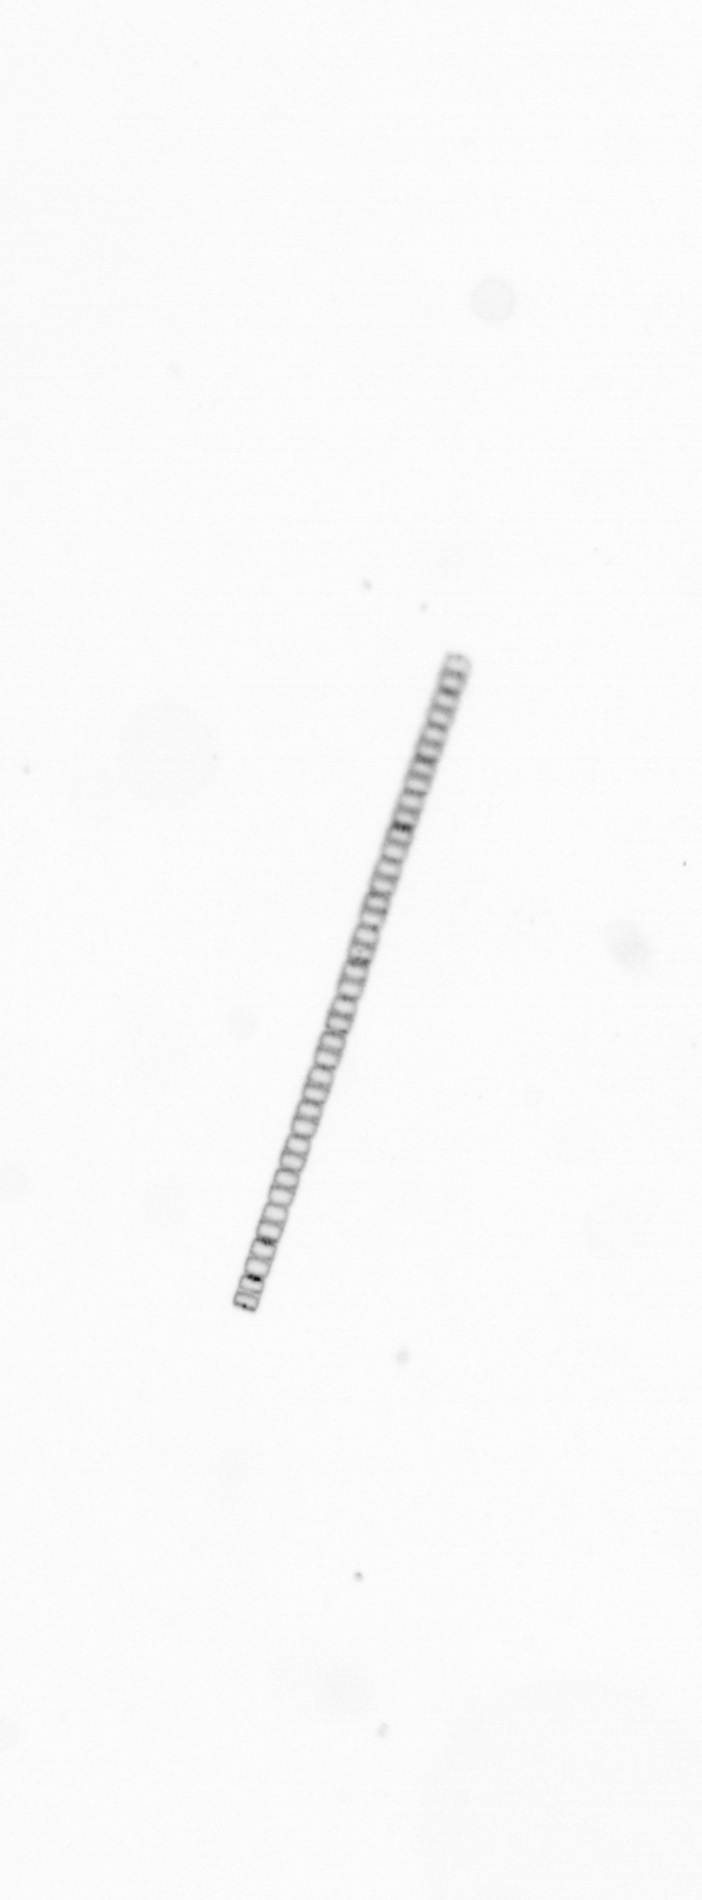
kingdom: Chromista
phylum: Ochrophyta
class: Bacillariophyceae
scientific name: Bacillariophyceae
